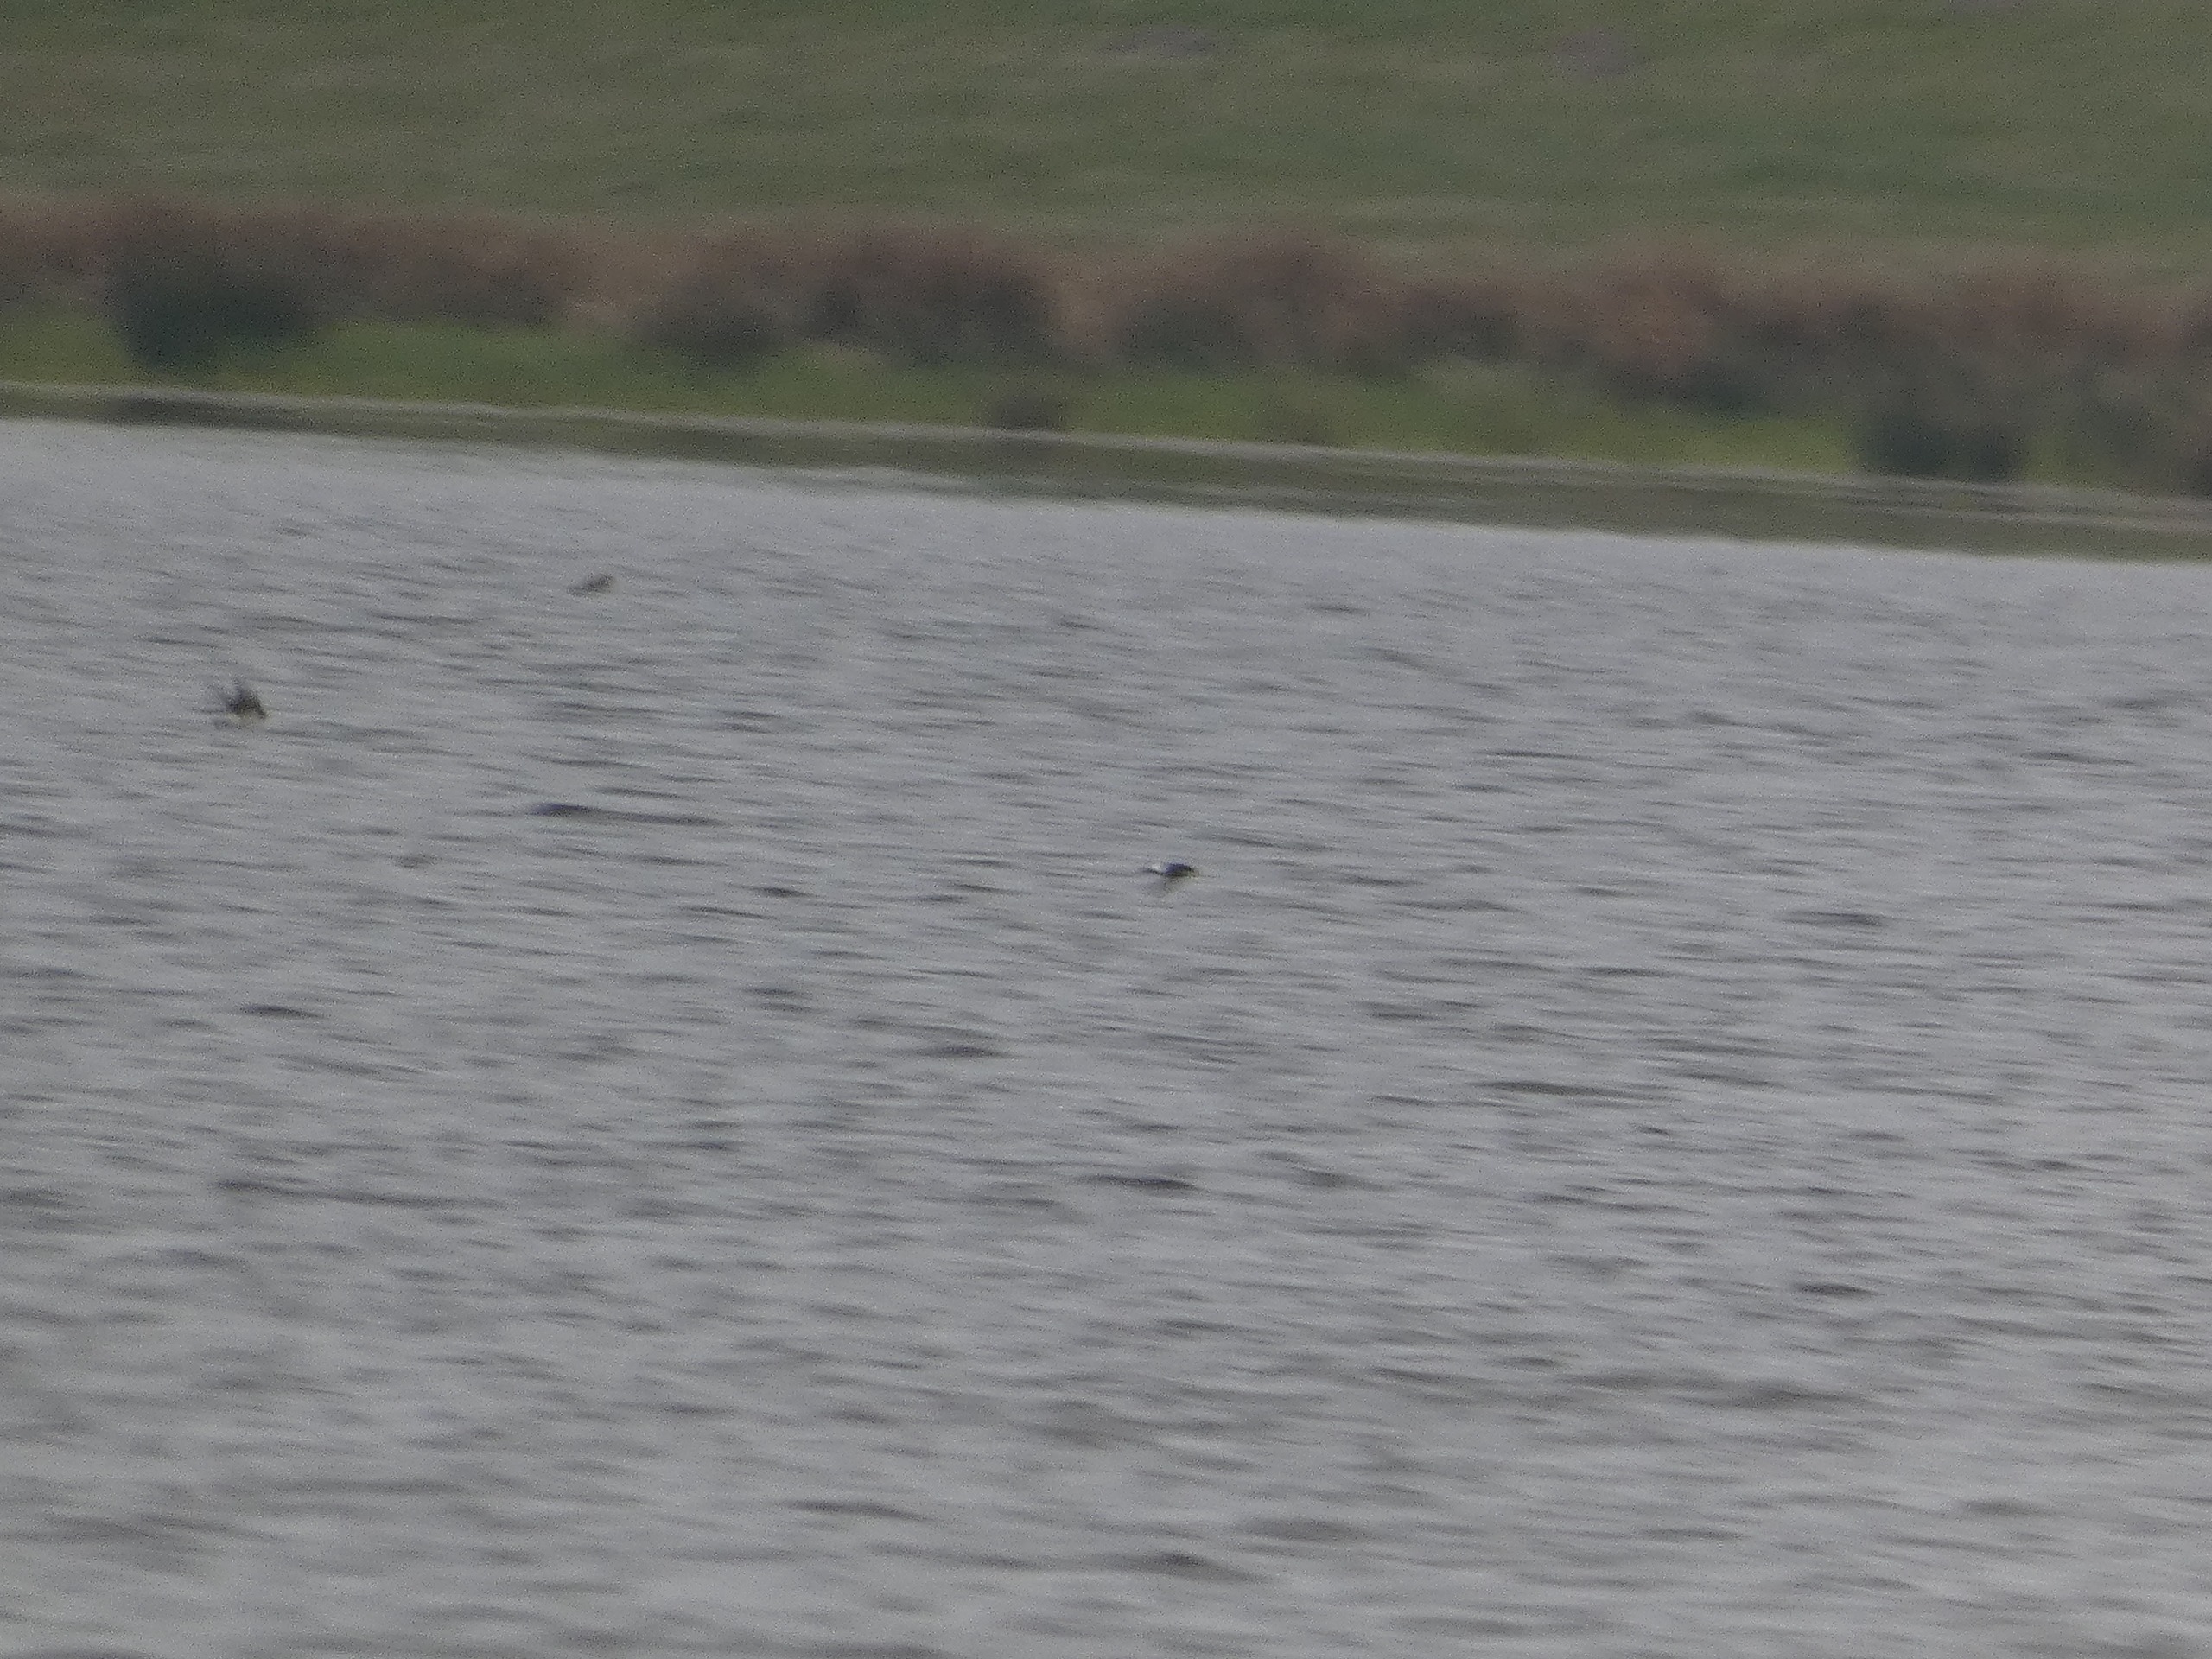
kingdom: Animalia
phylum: Chordata
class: Aves
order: Passeriformes
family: Hirundinidae
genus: Delichon
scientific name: Delichon urbicum
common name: Bysvale
